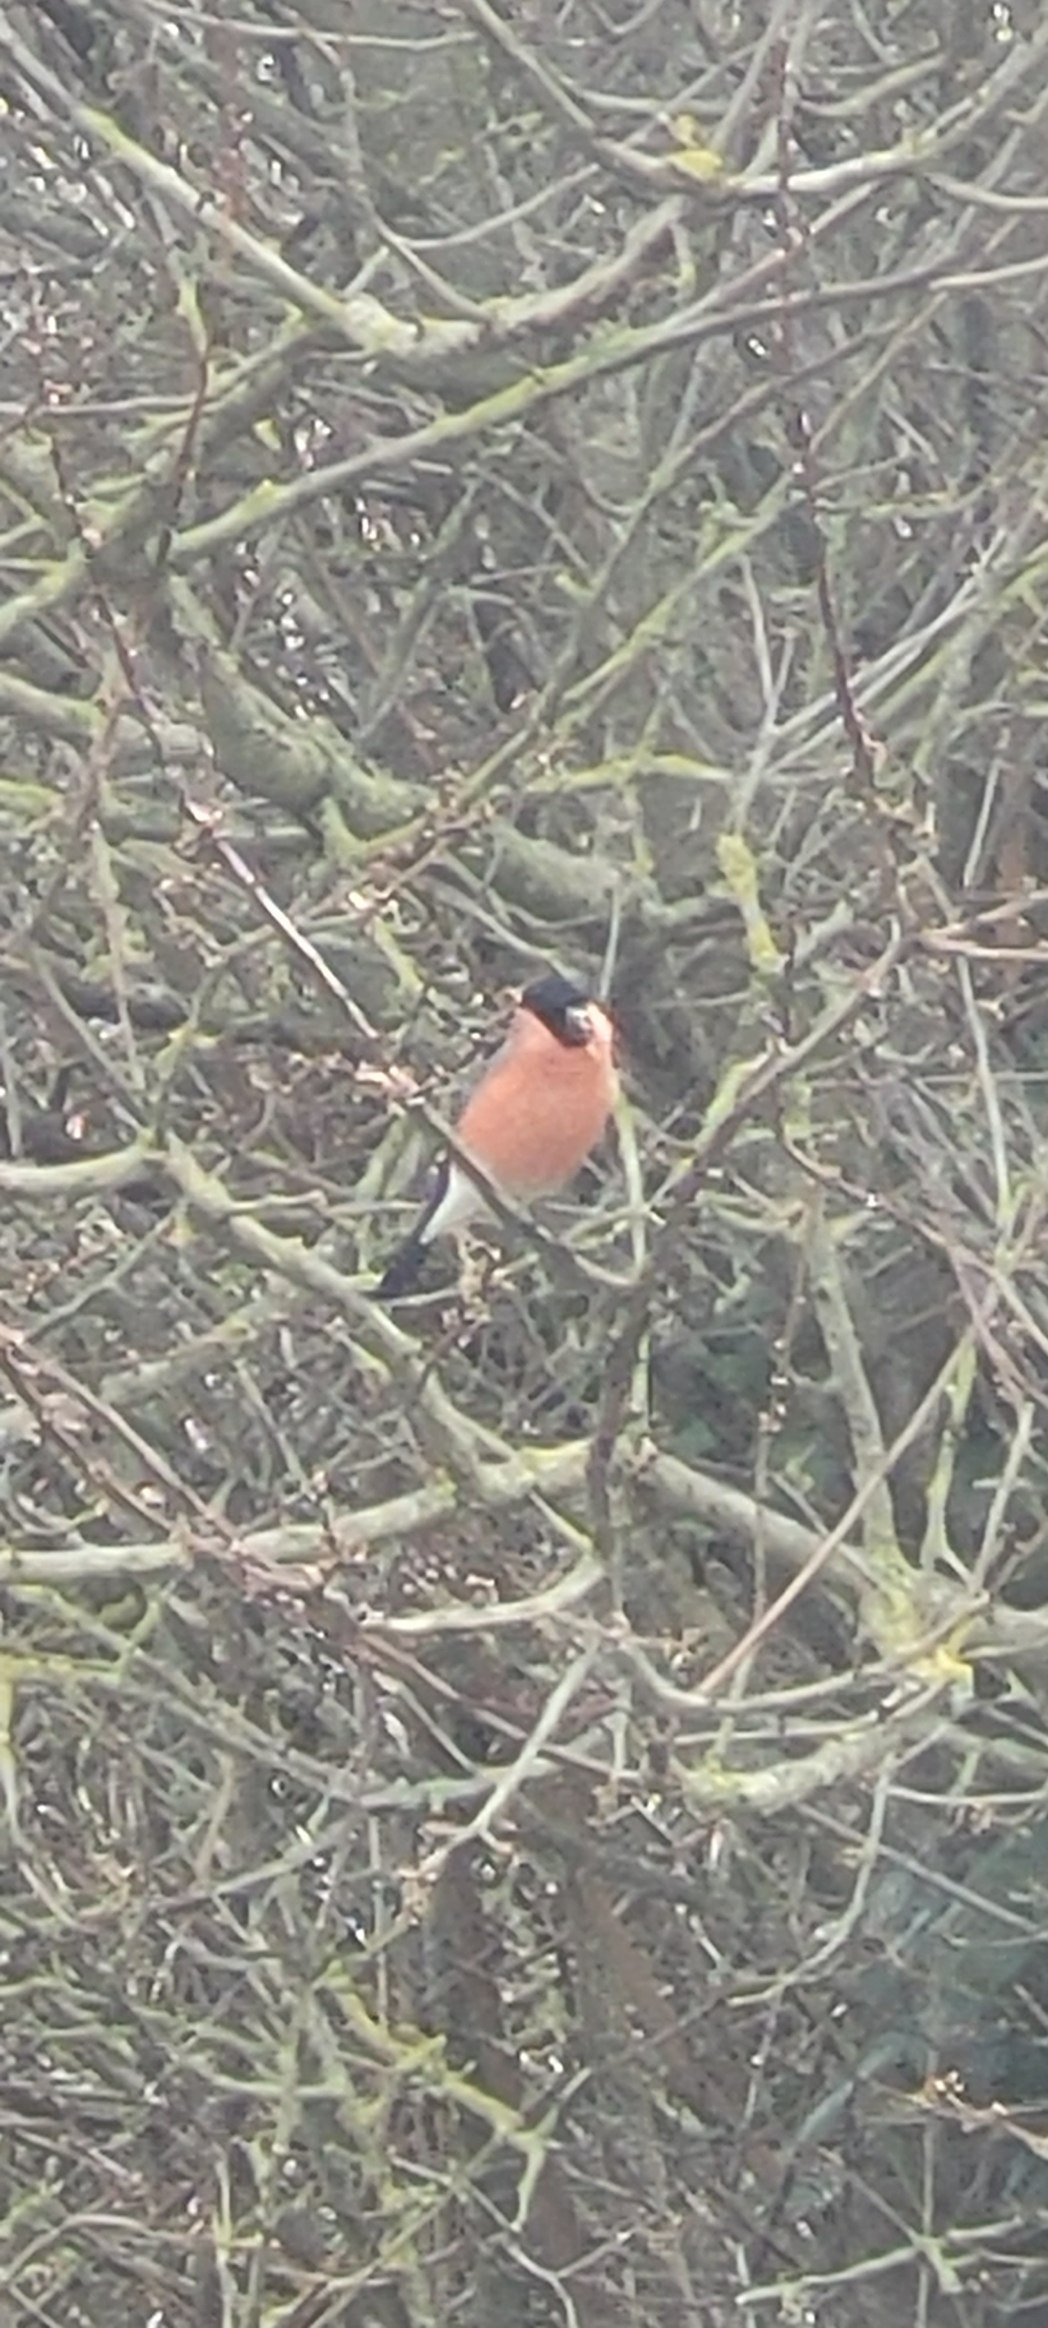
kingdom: Animalia
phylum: Chordata
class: Aves
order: Passeriformes
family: Fringillidae
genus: Pyrrhula
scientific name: Pyrrhula pyrrhula
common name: Dompap
